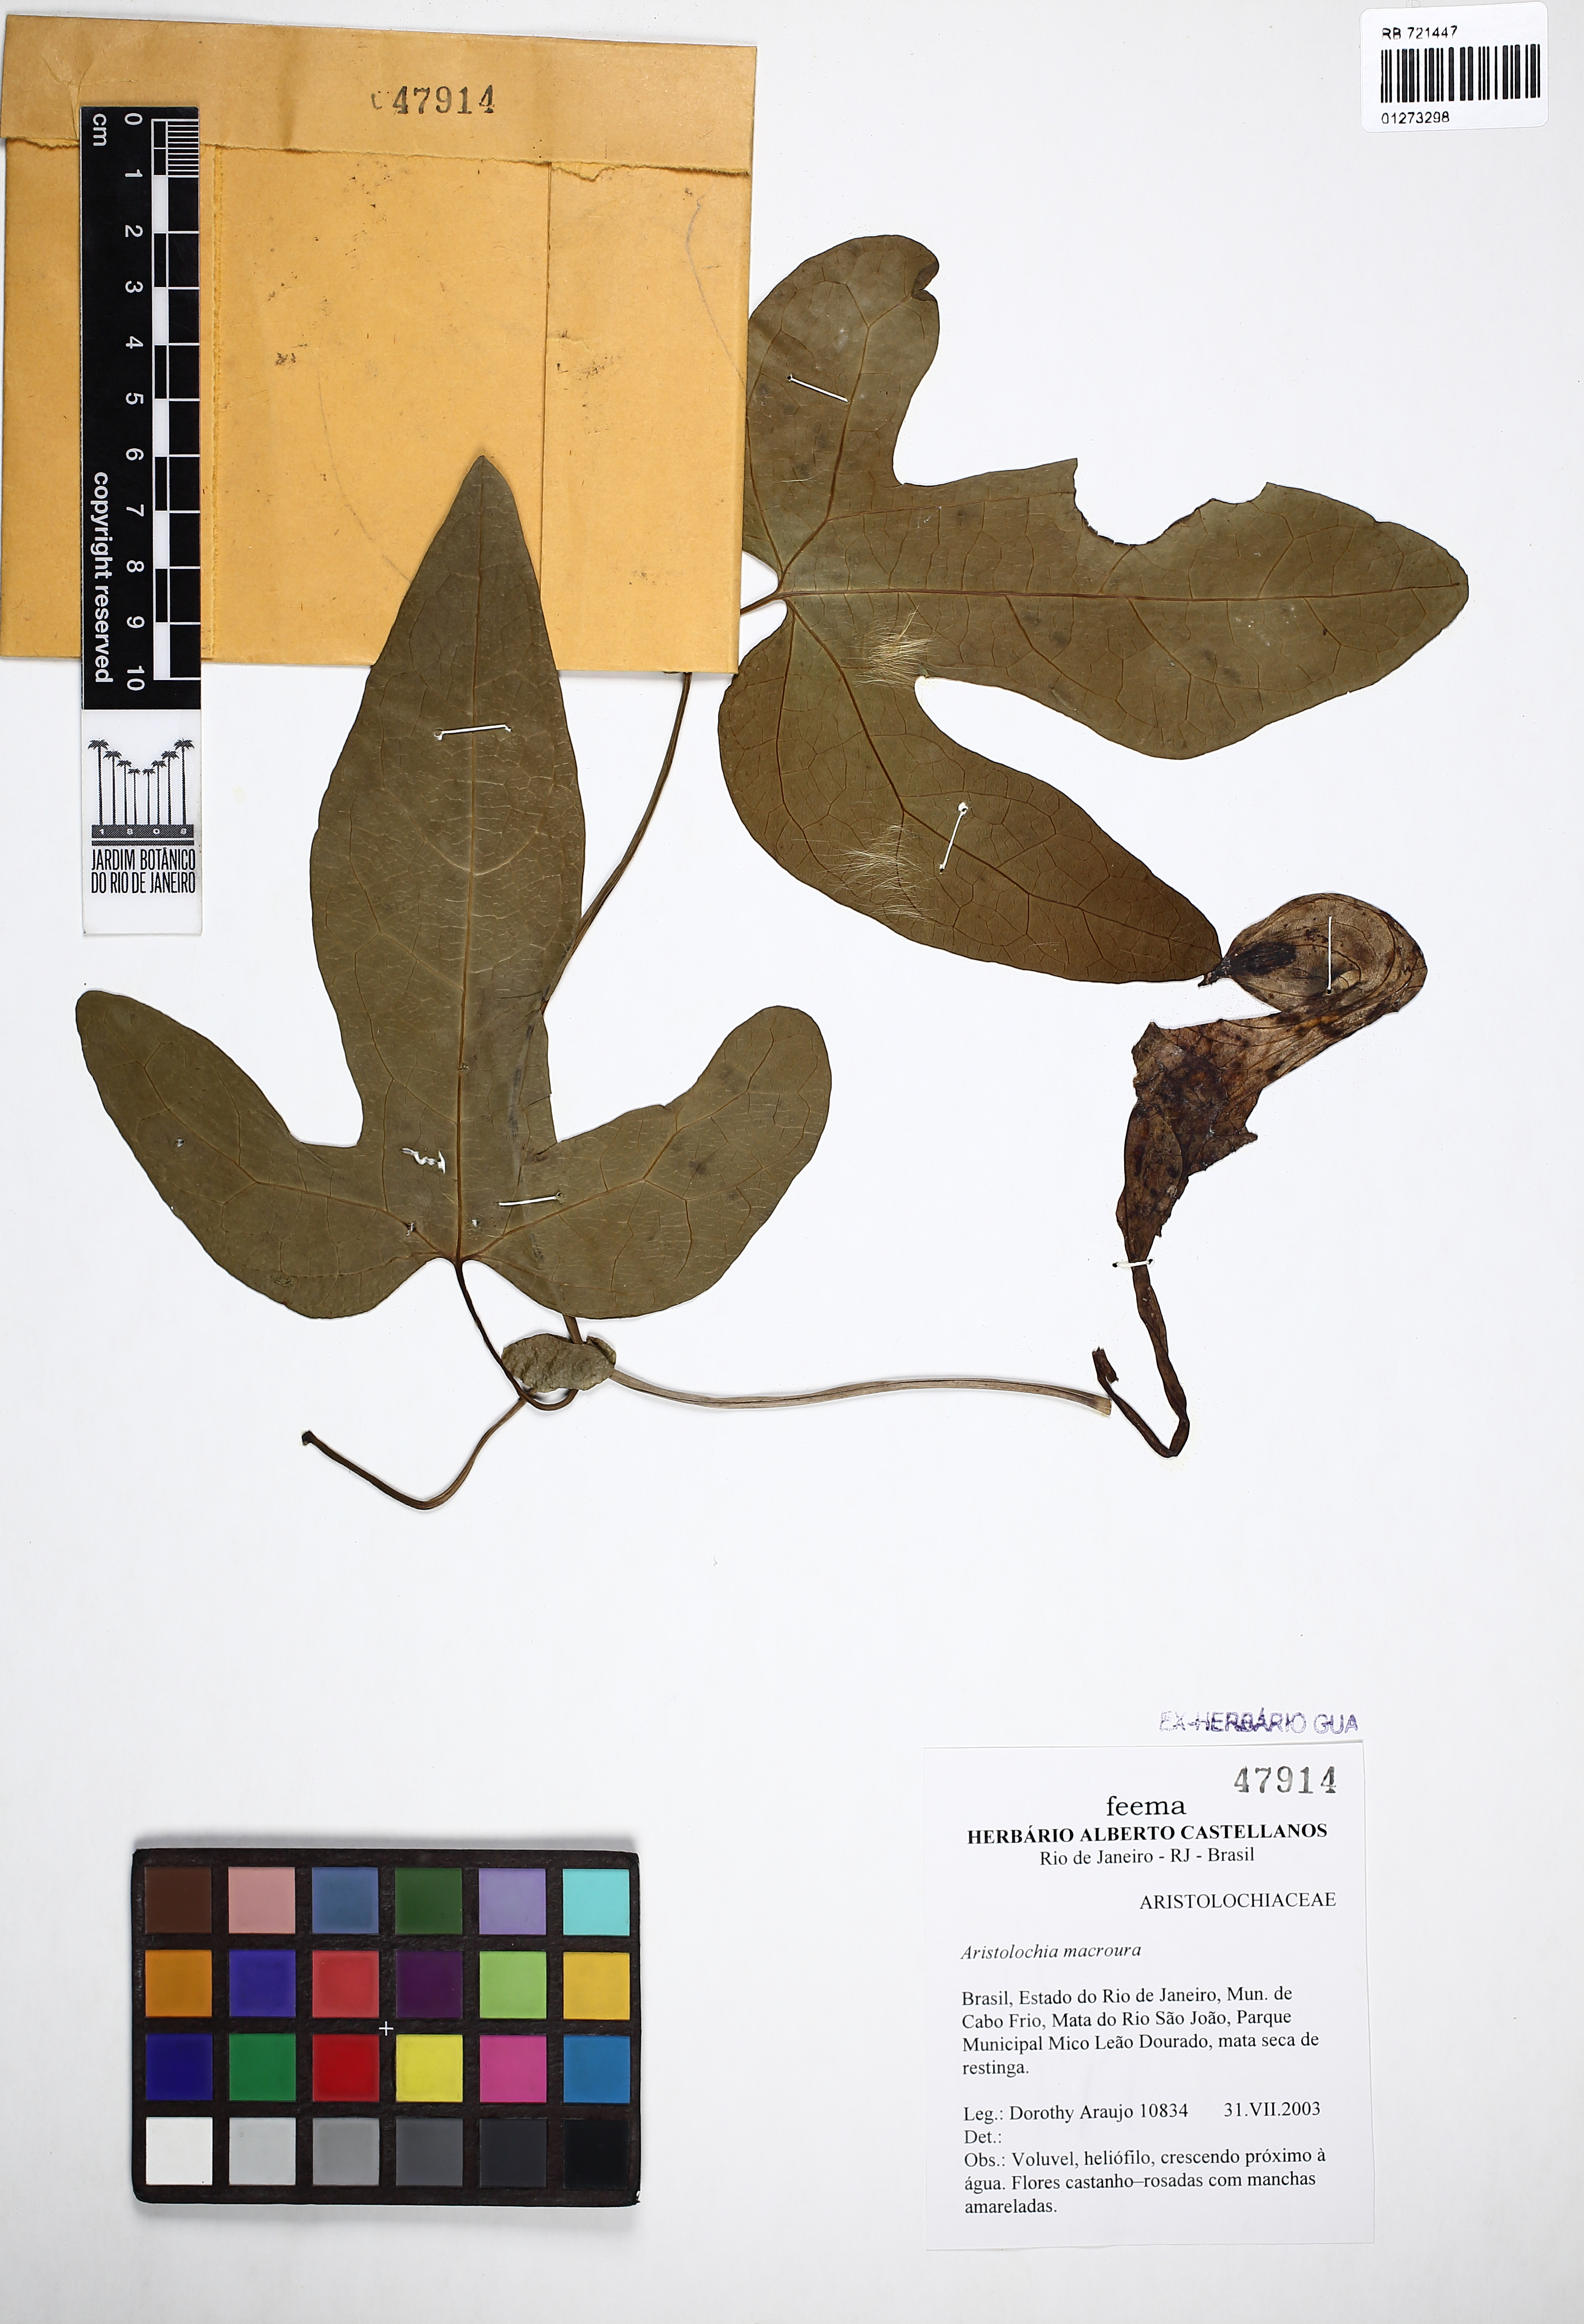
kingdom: Plantae
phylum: Tracheophyta
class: Magnoliopsida
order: Piperales
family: Aristolochiaceae
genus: Aristolochia
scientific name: Aristolochia macroura
